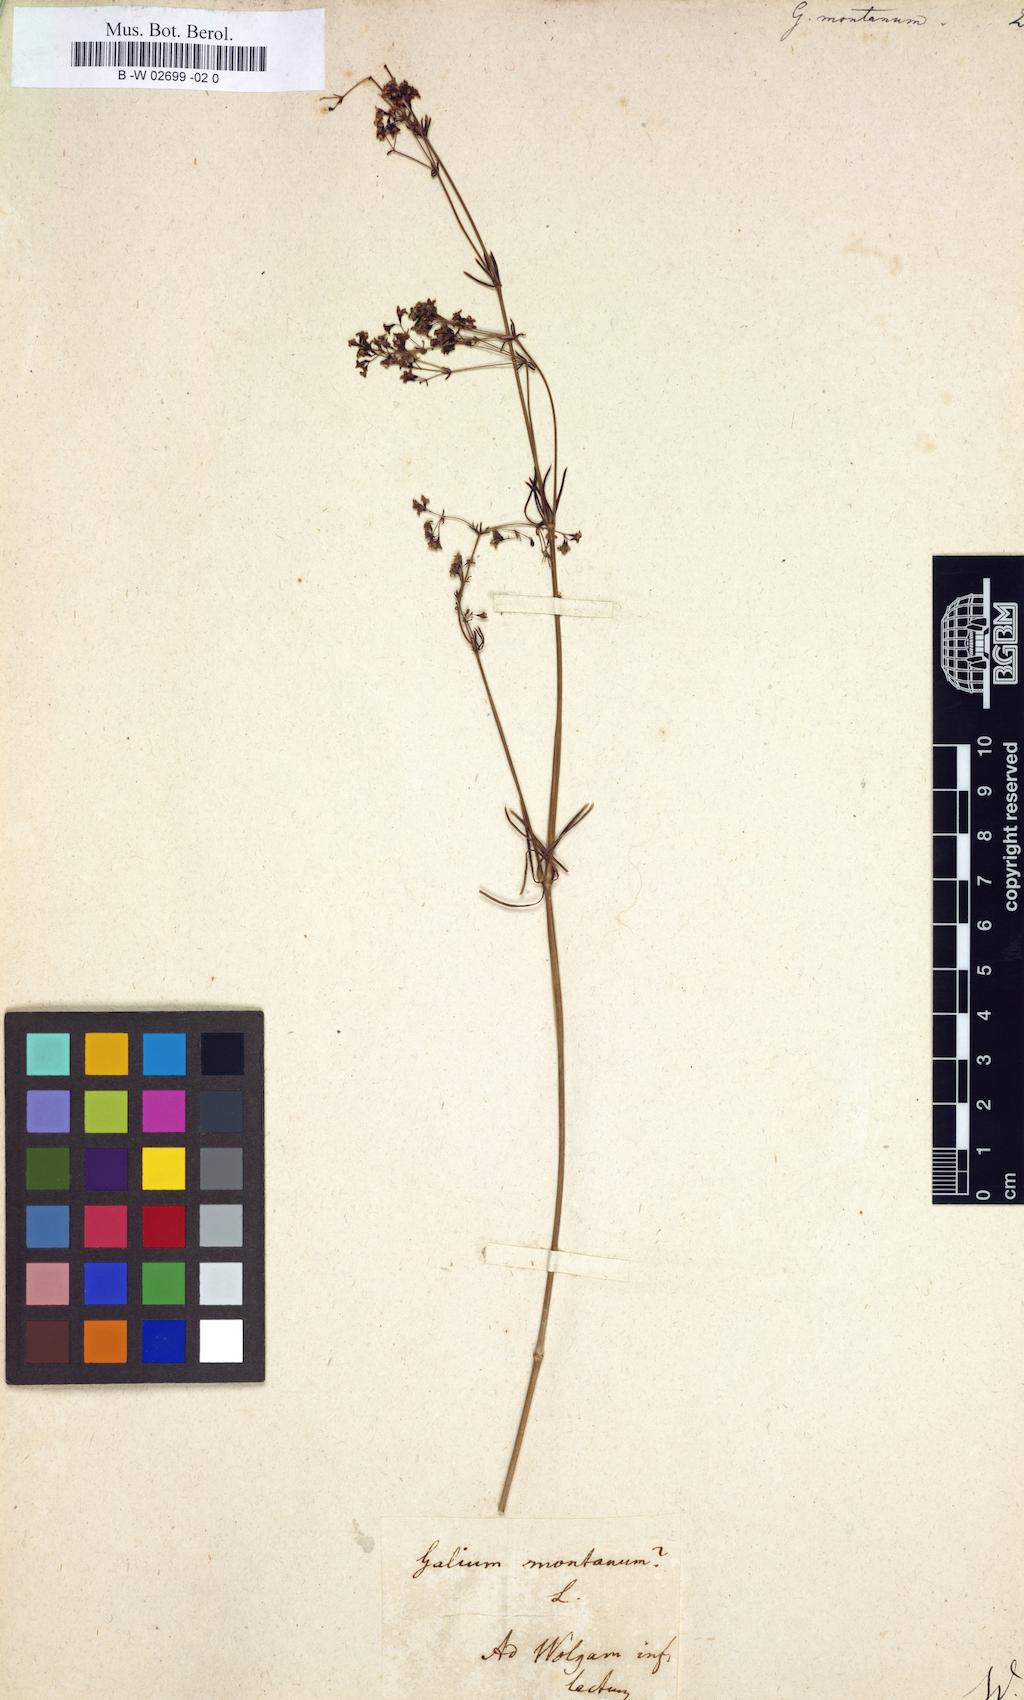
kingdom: Plantae
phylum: Tracheophyta
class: Magnoliopsida
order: Gentianales
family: Rubiaceae
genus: Galium
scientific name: Galium
